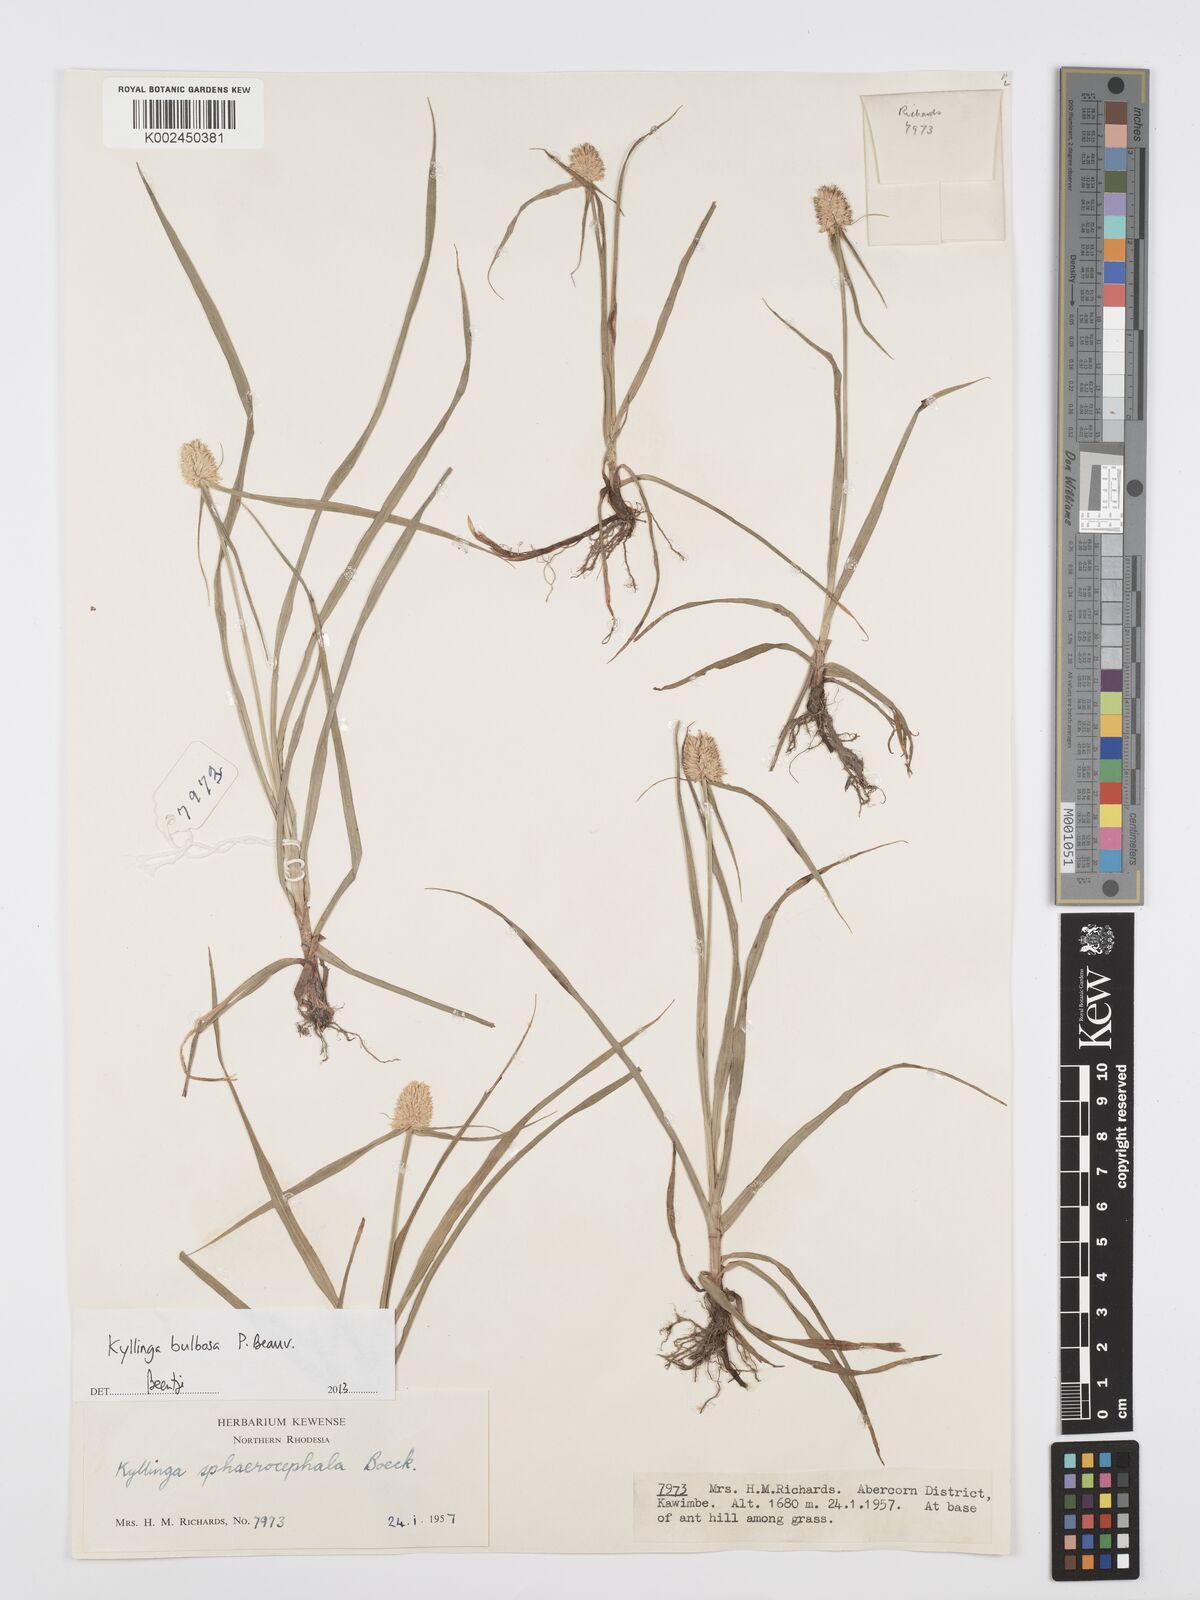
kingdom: Plantae
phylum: Tracheophyta
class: Liliopsida
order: Poales
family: Cyperaceae
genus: Cyperus
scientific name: Cyperus
